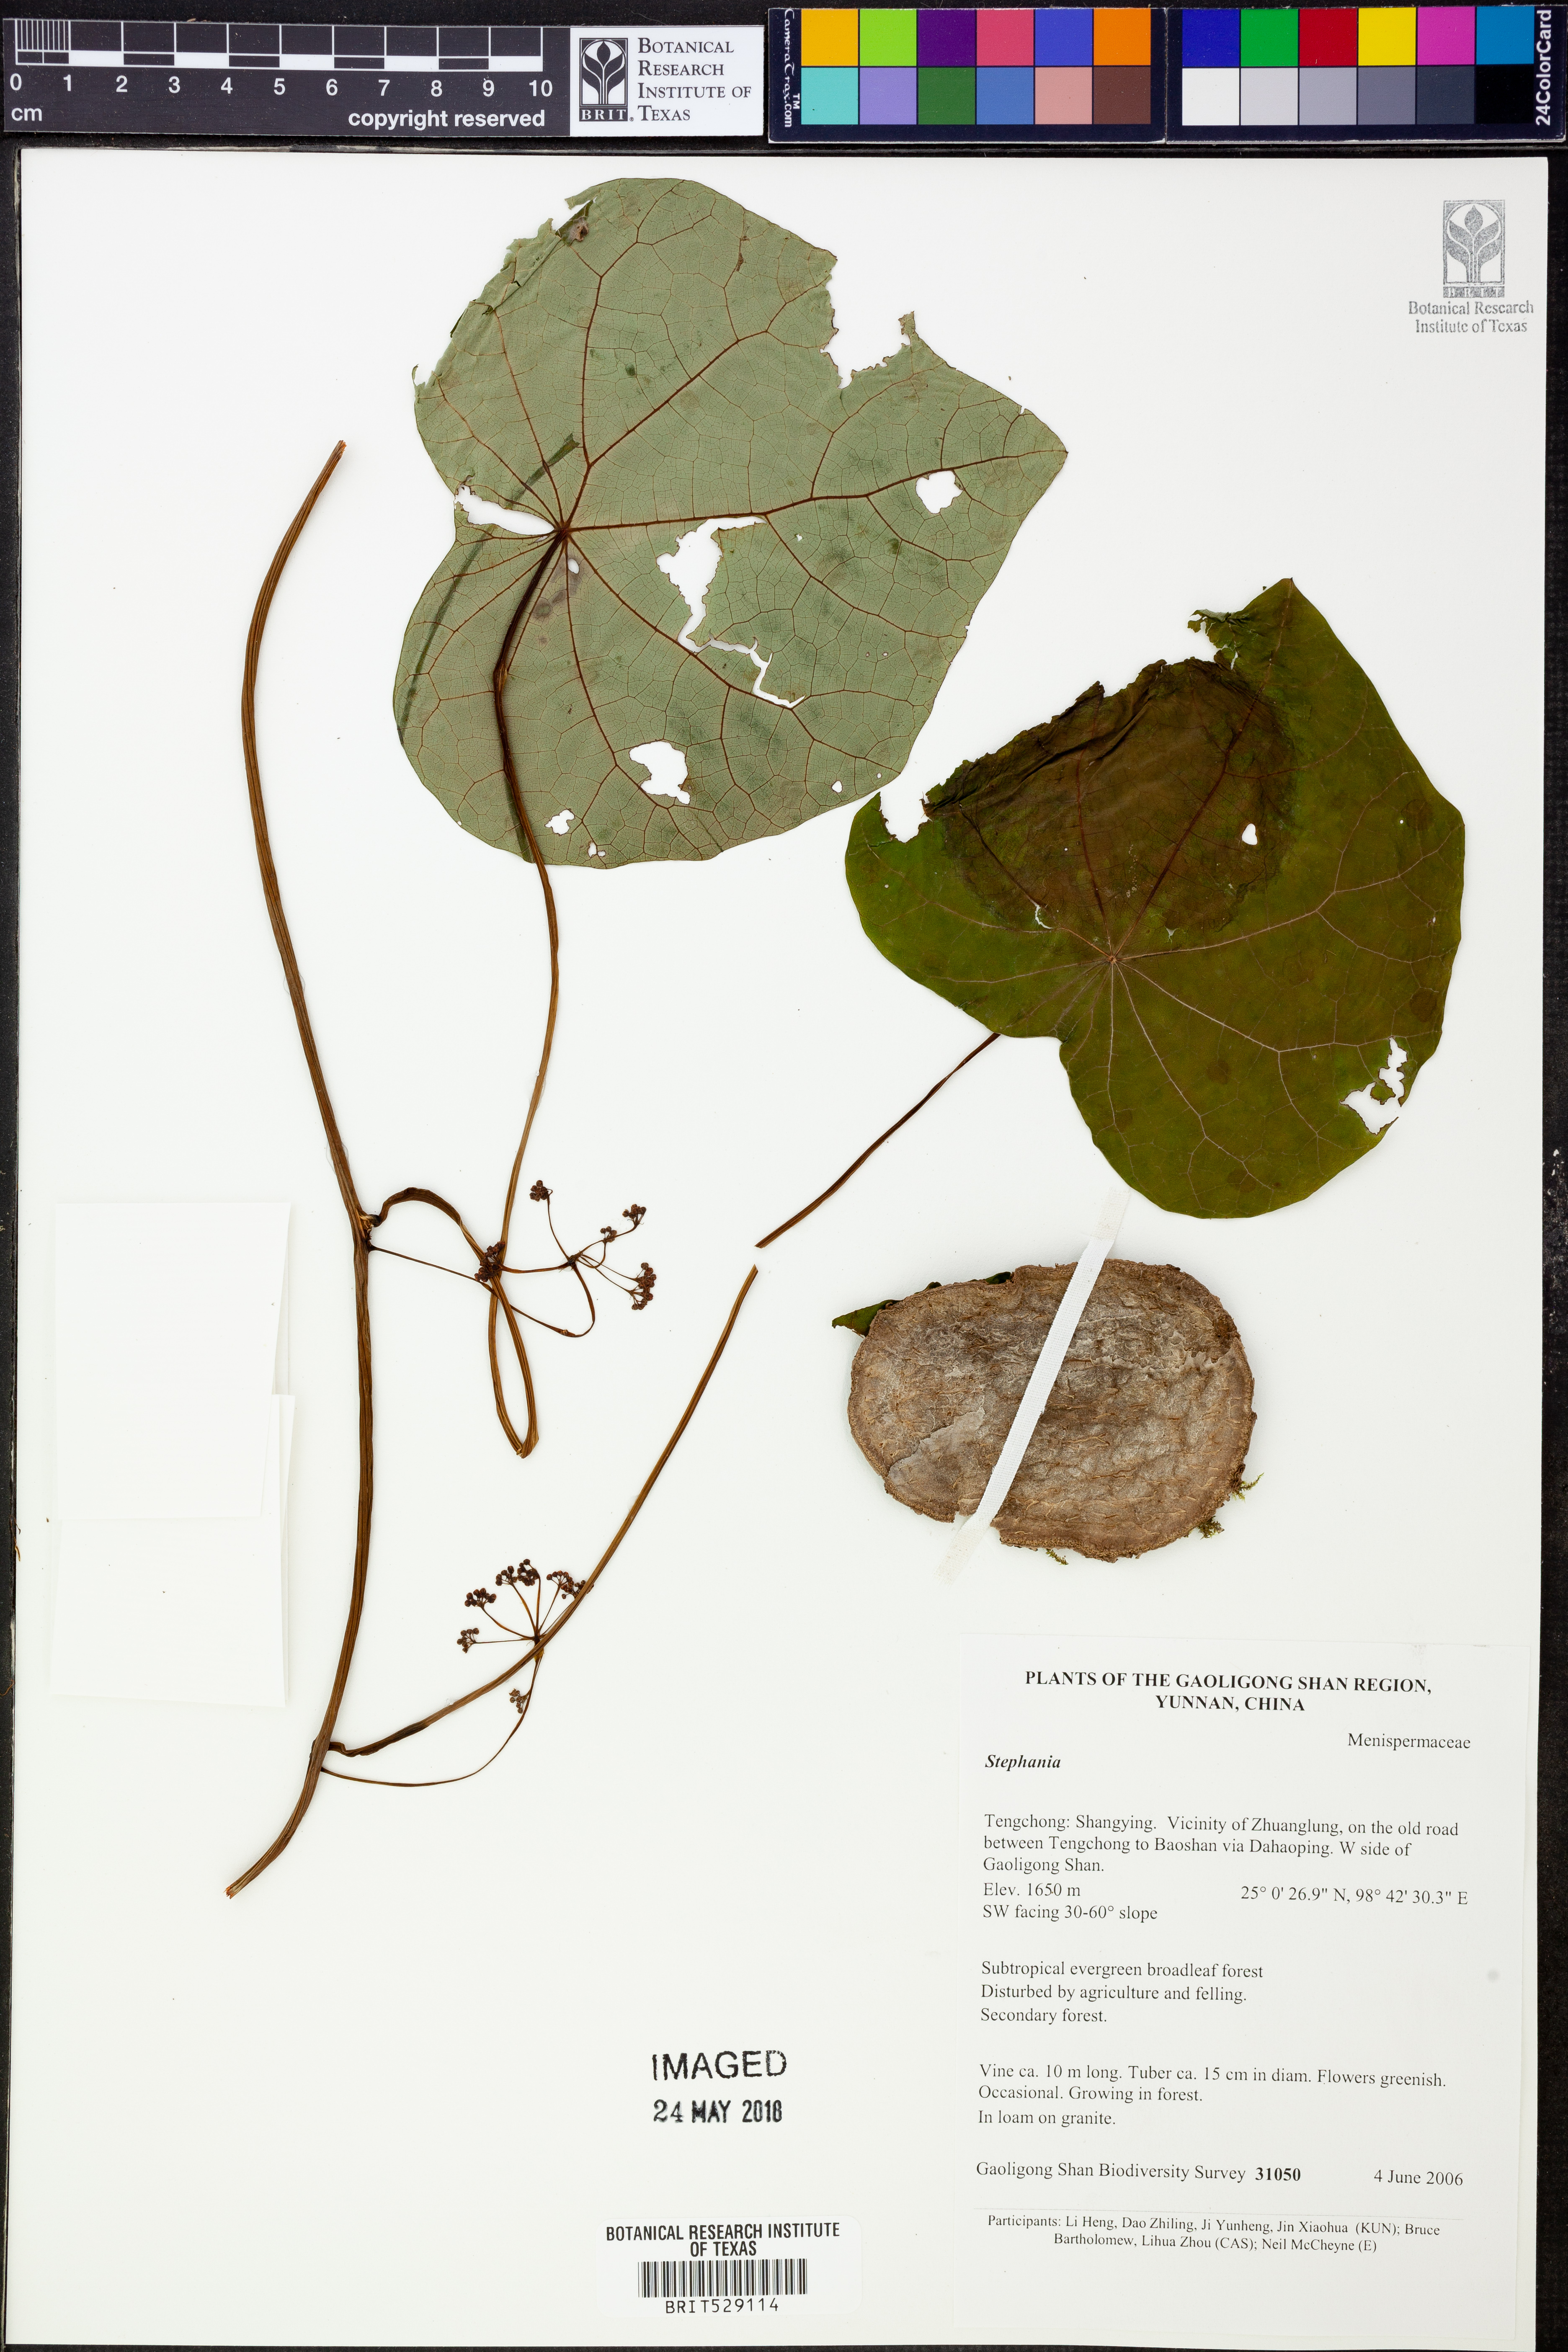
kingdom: Plantae
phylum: Tracheophyta
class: Magnoliopsida
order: Ranunculales
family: Menispermaceae
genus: Stephania
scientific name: Stephania
